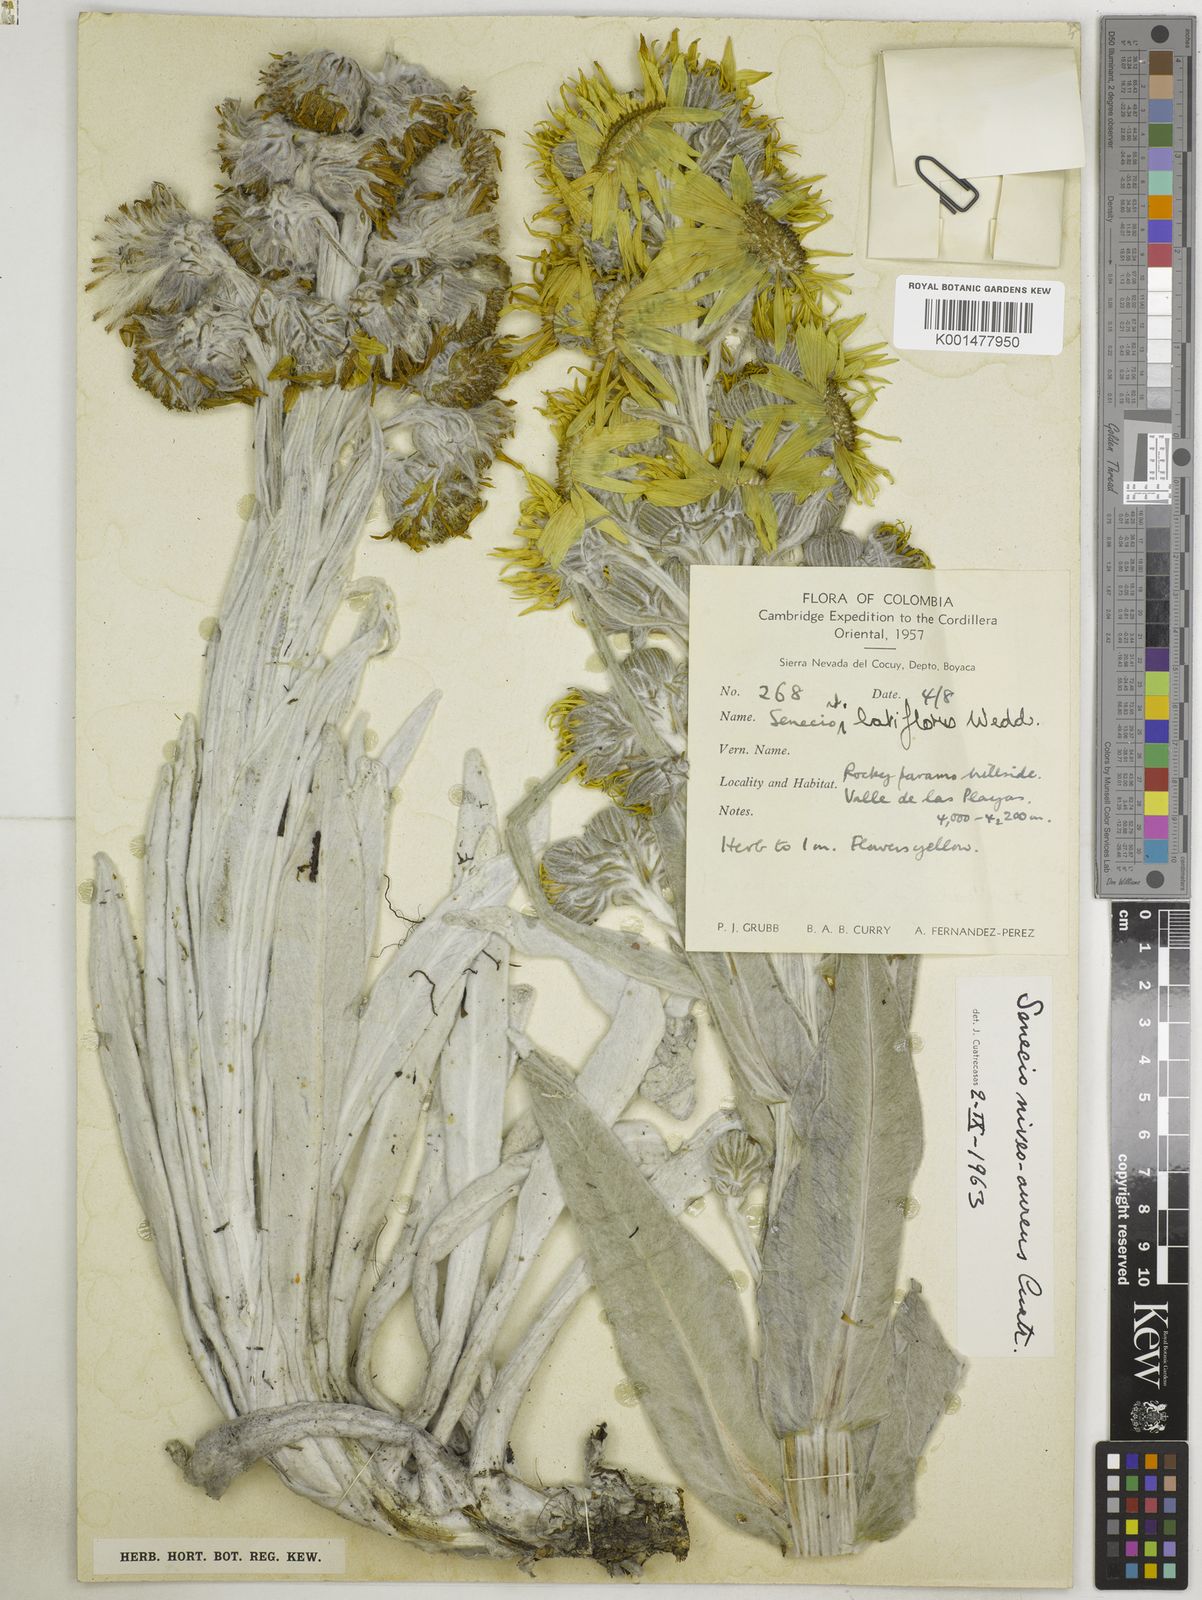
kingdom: Plantae
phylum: Tracheophyta
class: Magnoliopsida
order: Asterales
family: Asteraceae
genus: Senecio
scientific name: Senecio niveoaureus
